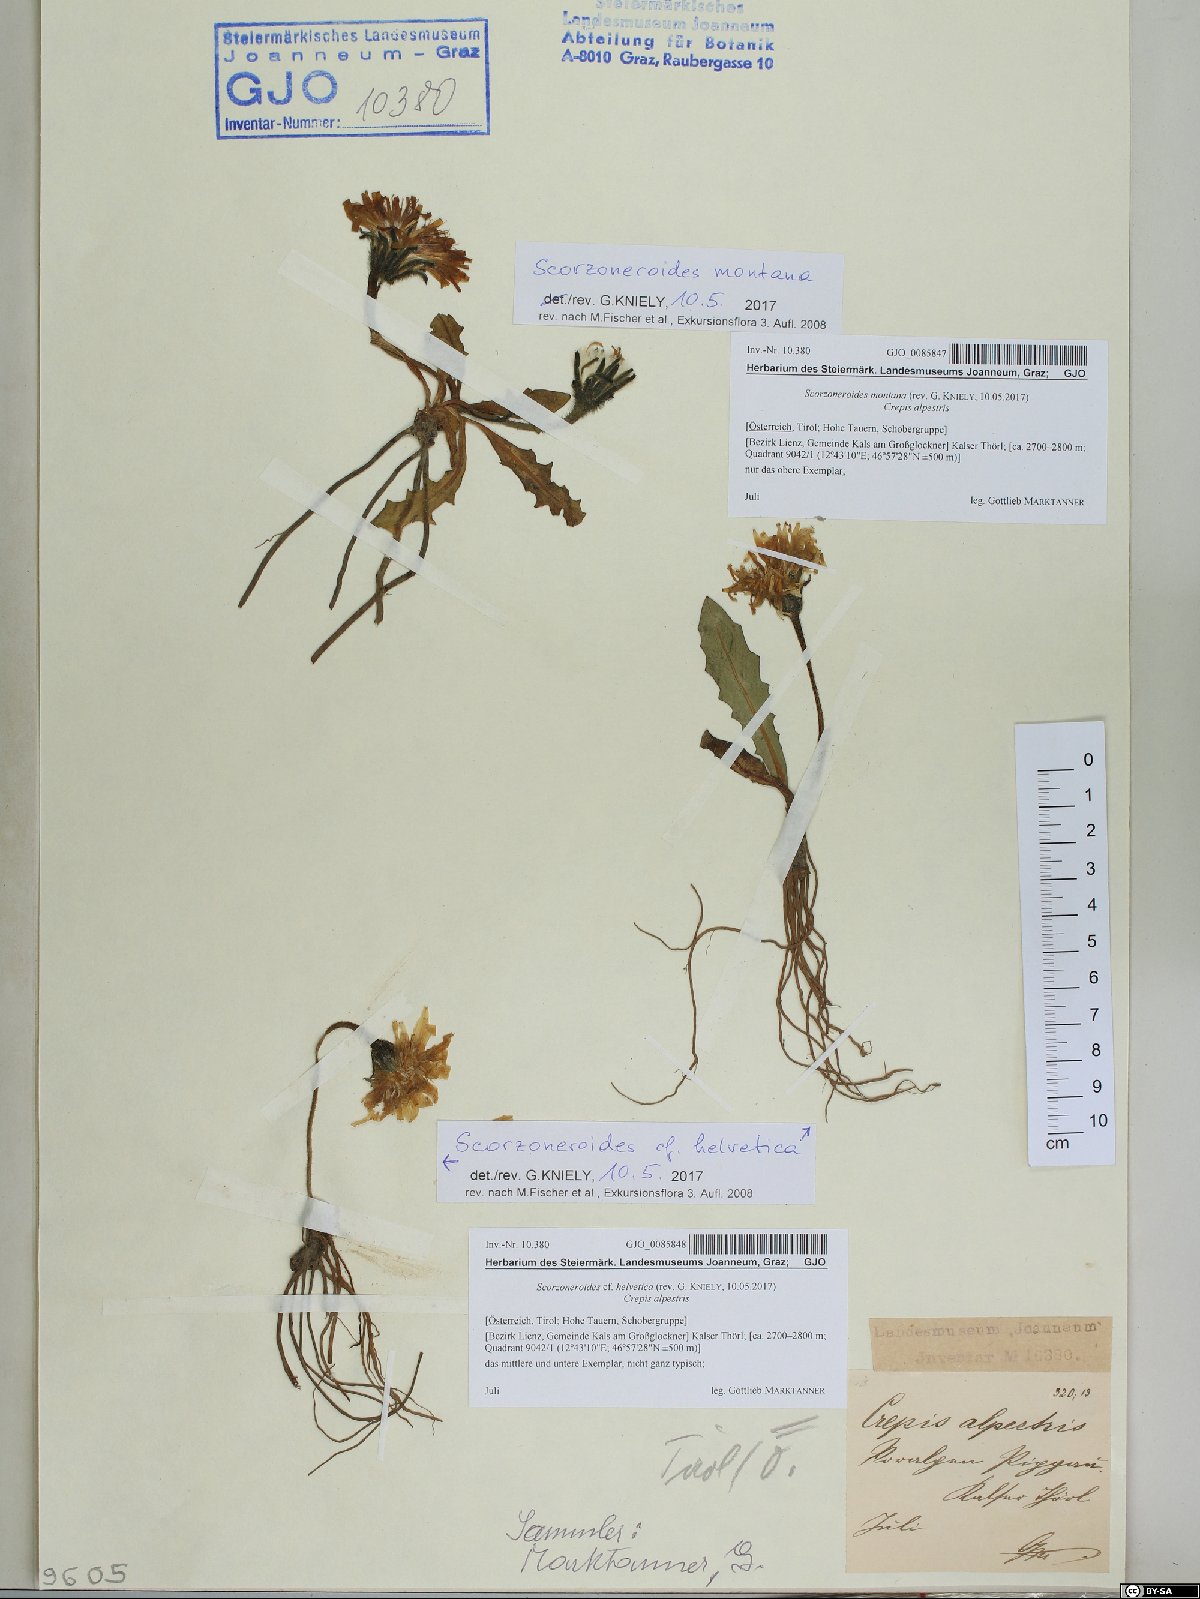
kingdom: Plantae
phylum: Tracheophyta
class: Magnoliopsida
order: Asterales
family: Asteraceae
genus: Scorzoneroides
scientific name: Scorzoneroides montana
